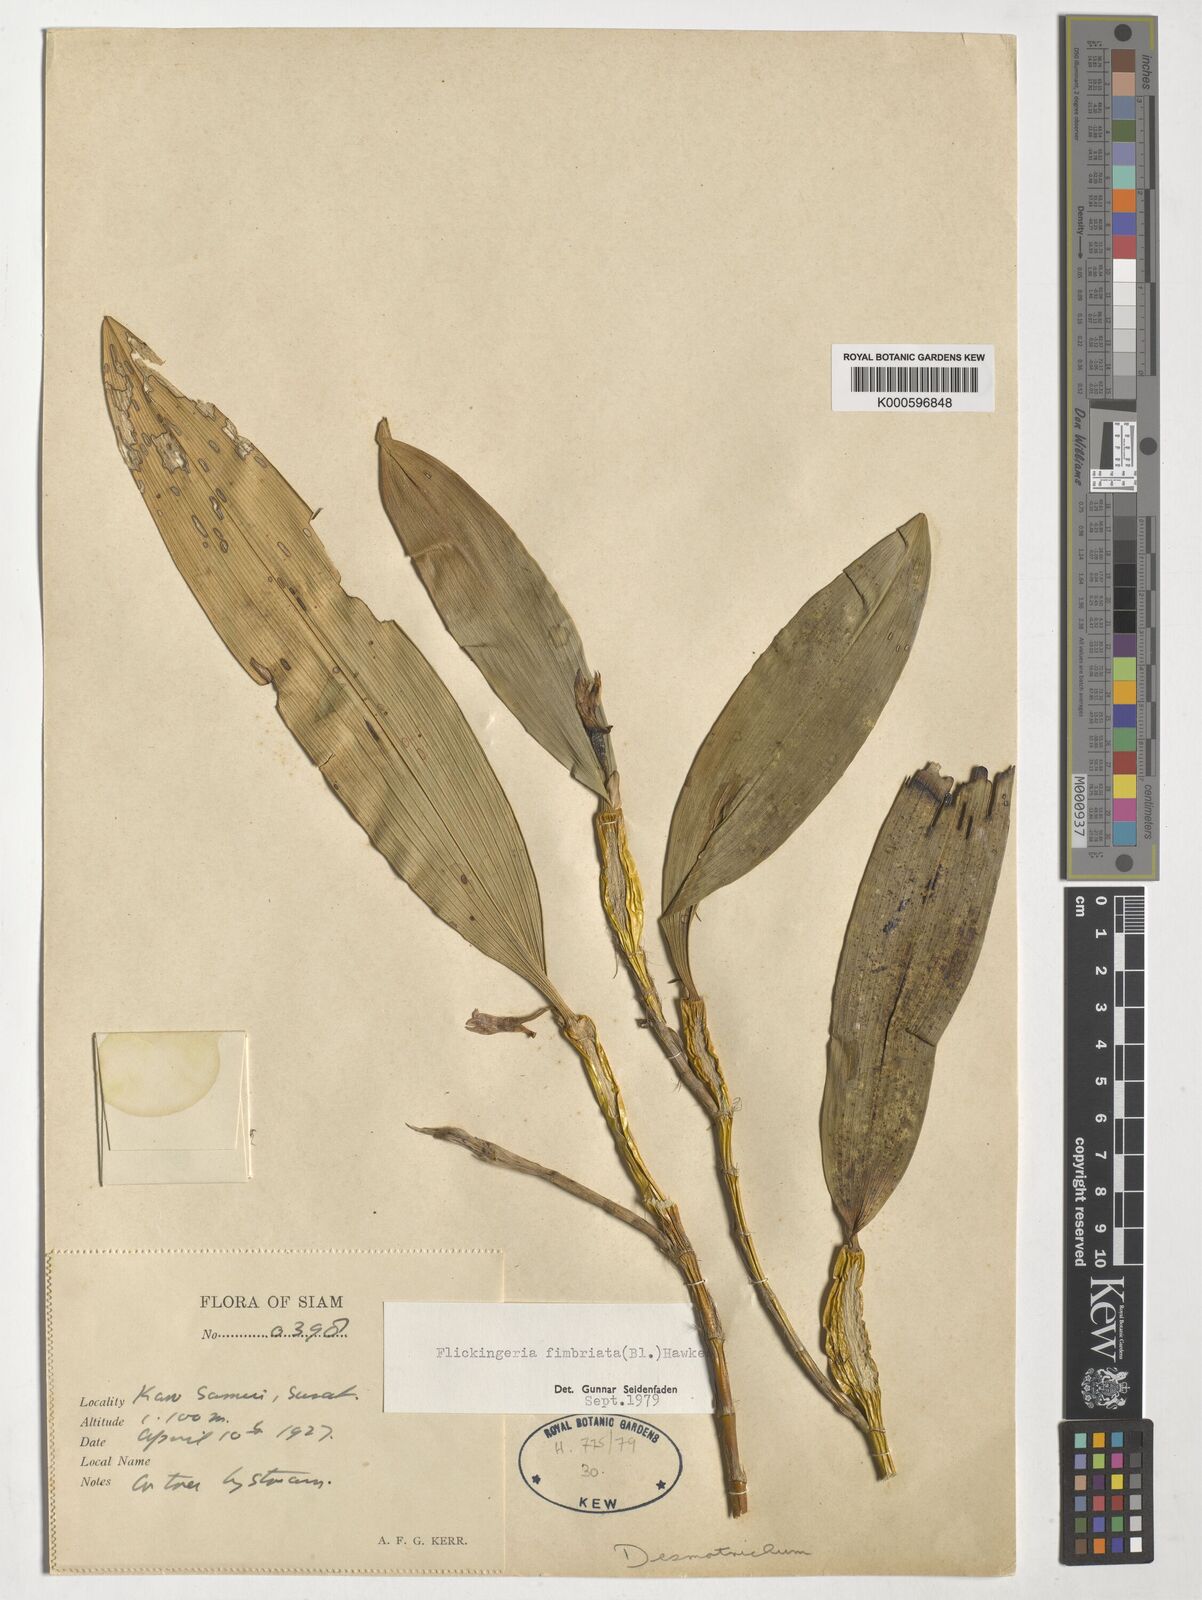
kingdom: Plantae
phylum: Tracheophyta
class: Liliopsida
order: Asparagales
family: Orchidaceae
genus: Dendrobium
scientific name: Dendrobium plicatile
